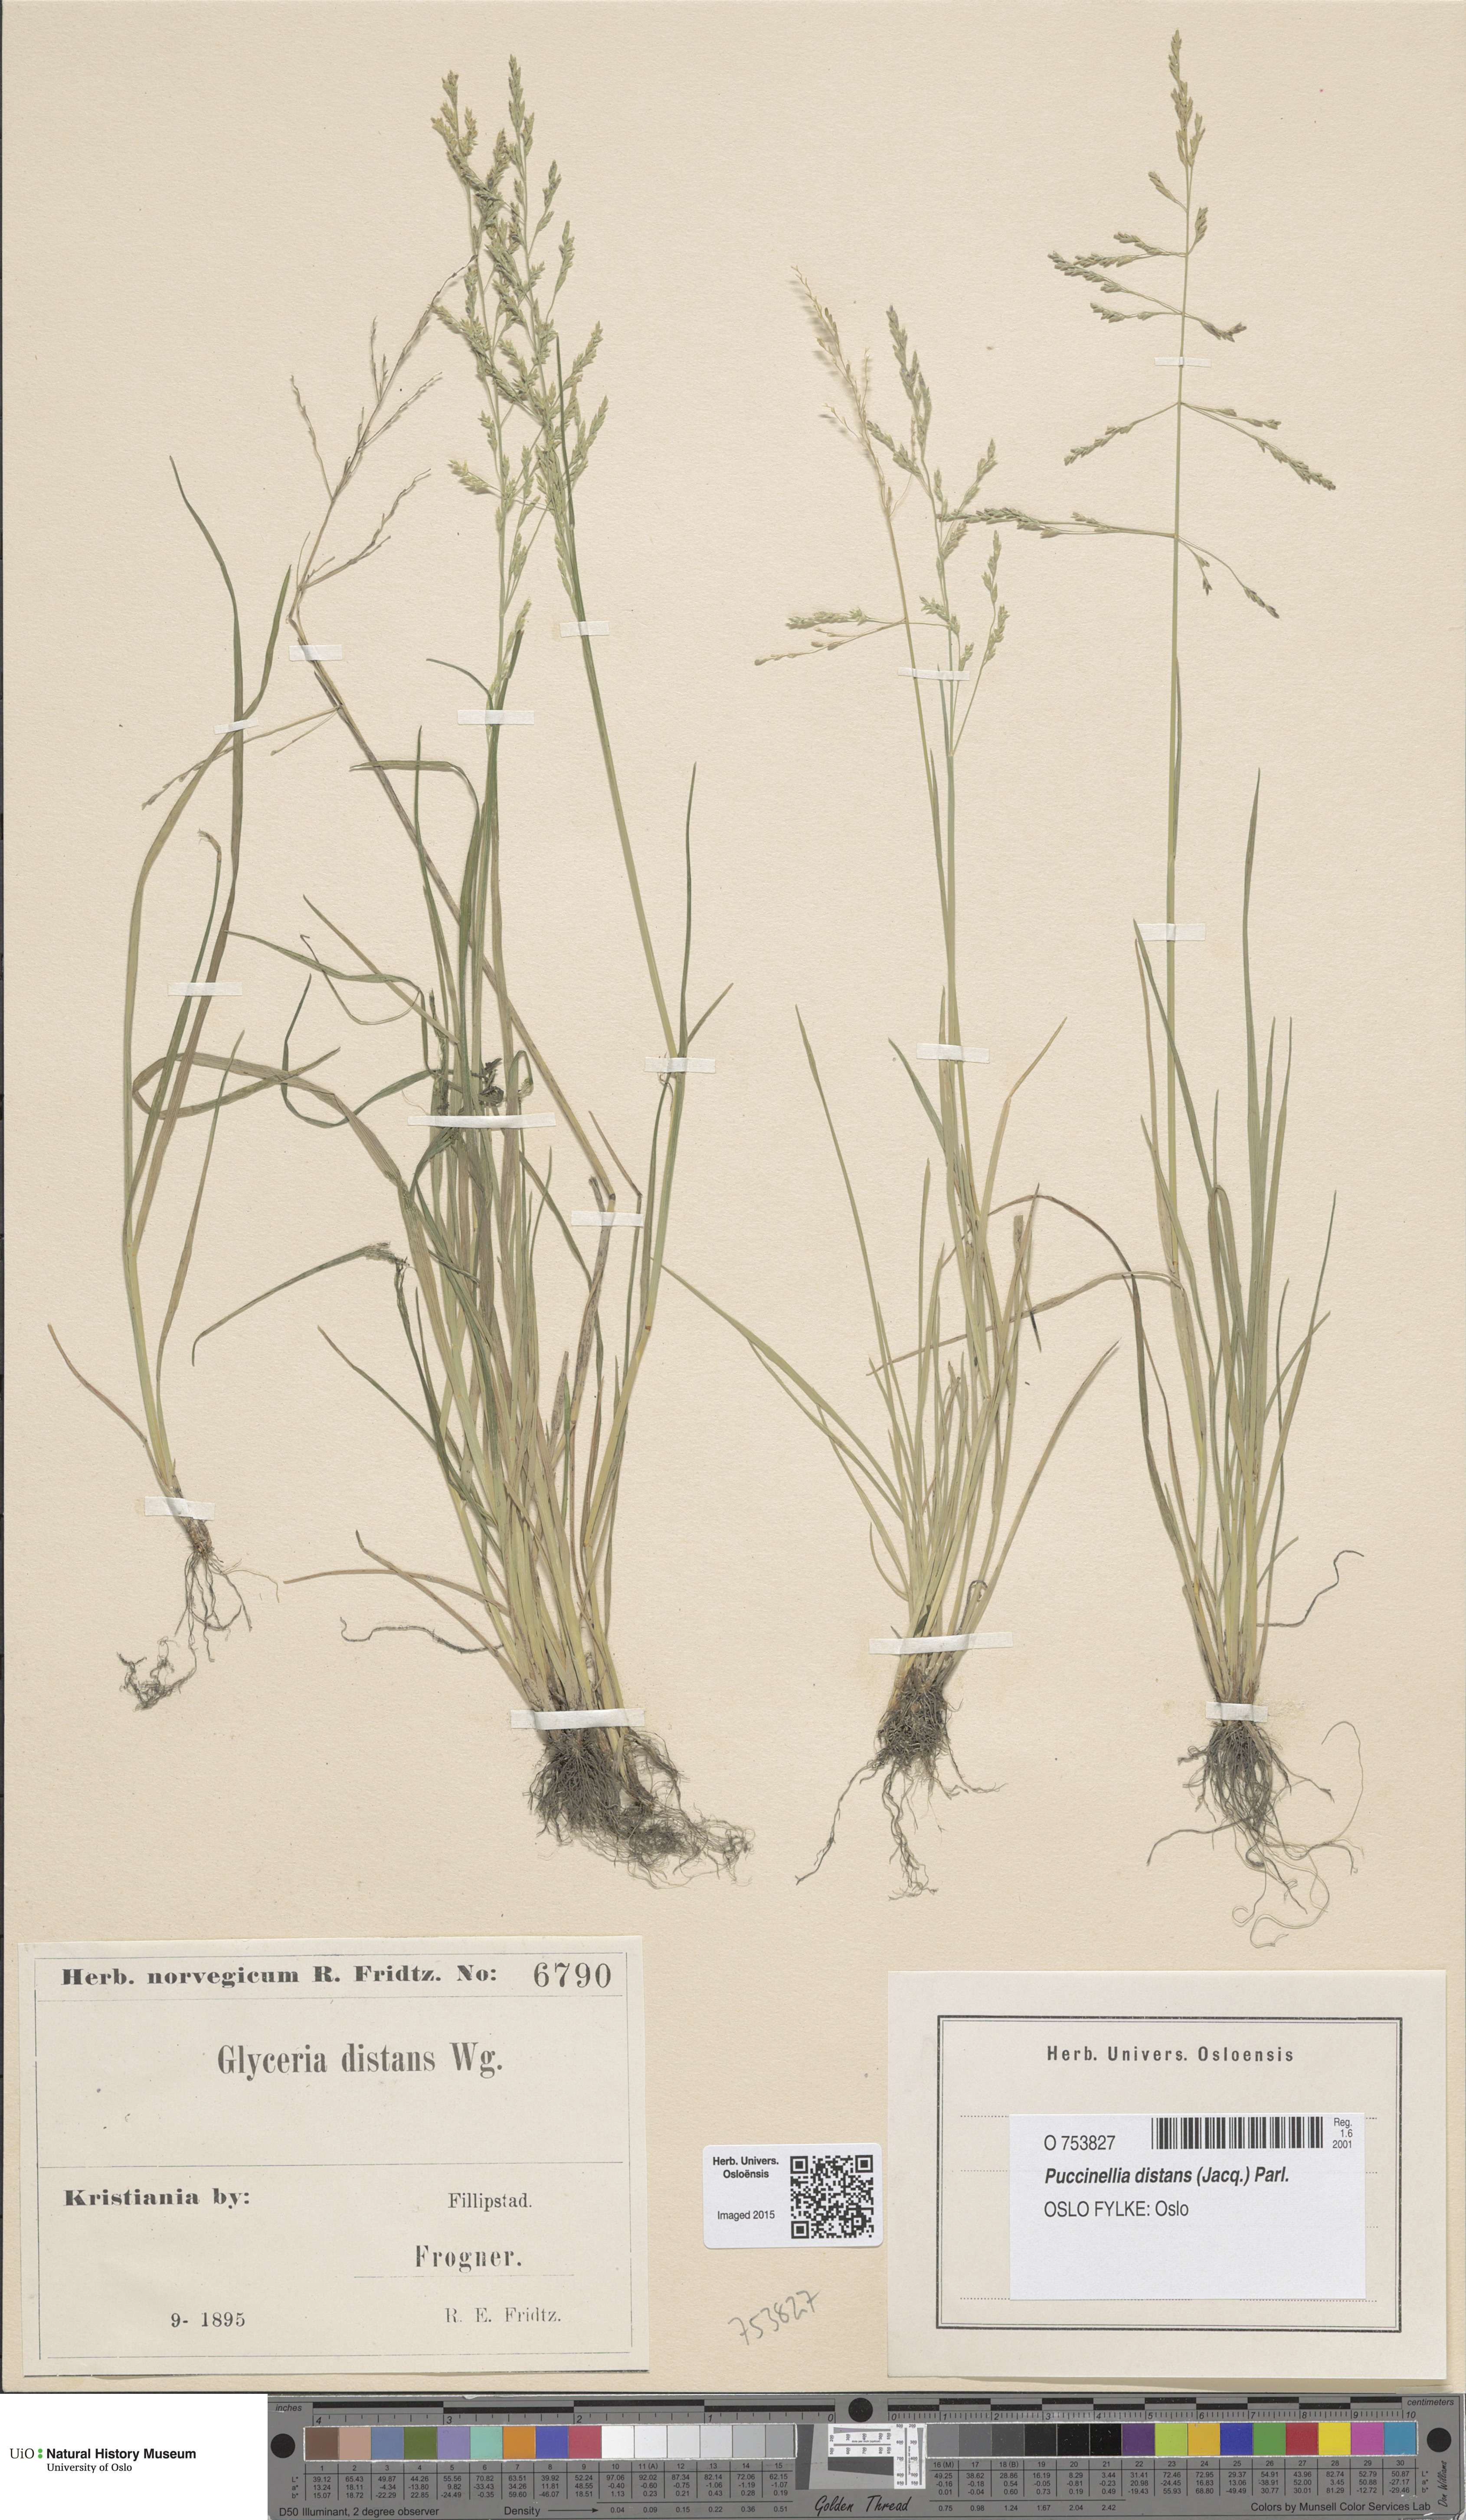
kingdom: Plantae
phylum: Tracheophyta
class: Liliopsida
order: Poales
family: Poaceae
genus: Puccinellia
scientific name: Puccinellia distans
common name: Weeping alkaligrass
